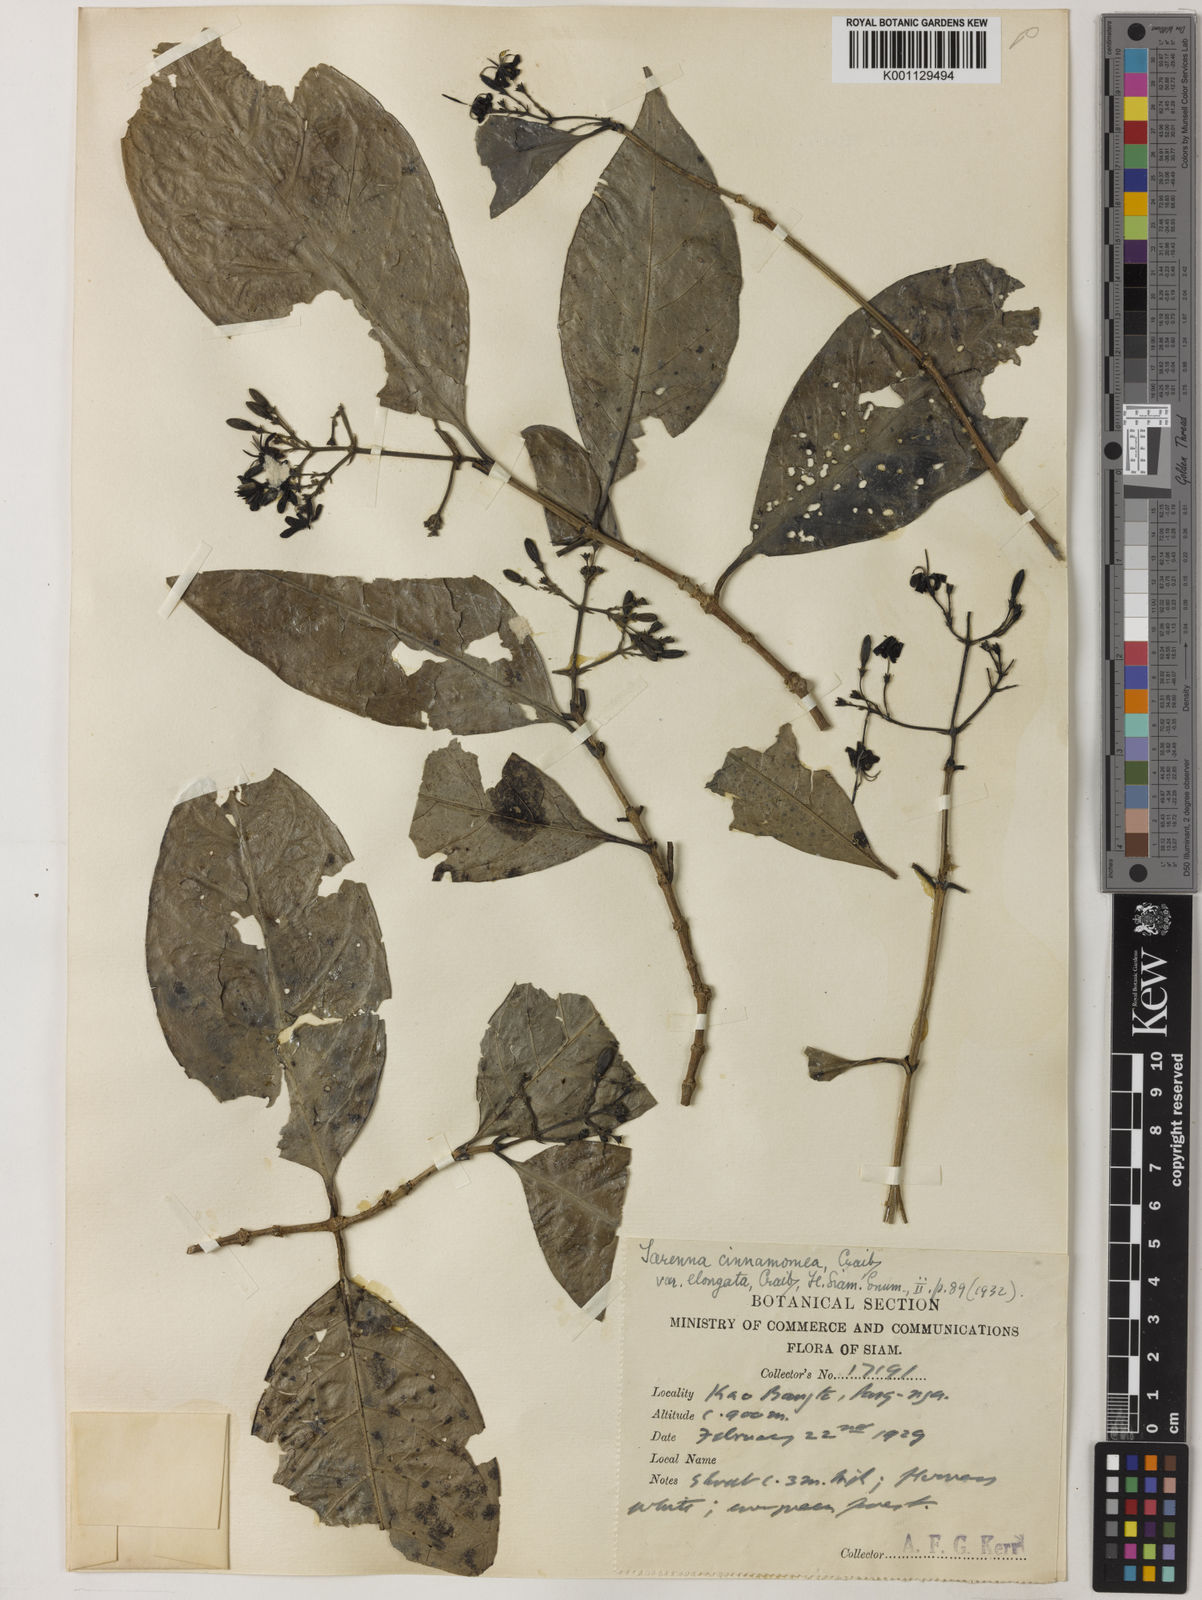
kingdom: Plantae
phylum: Tracheophyta
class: Magnoliopsida
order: Gentianales
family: Rubiaceae
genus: Tarenna
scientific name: Tarenna pulchra
